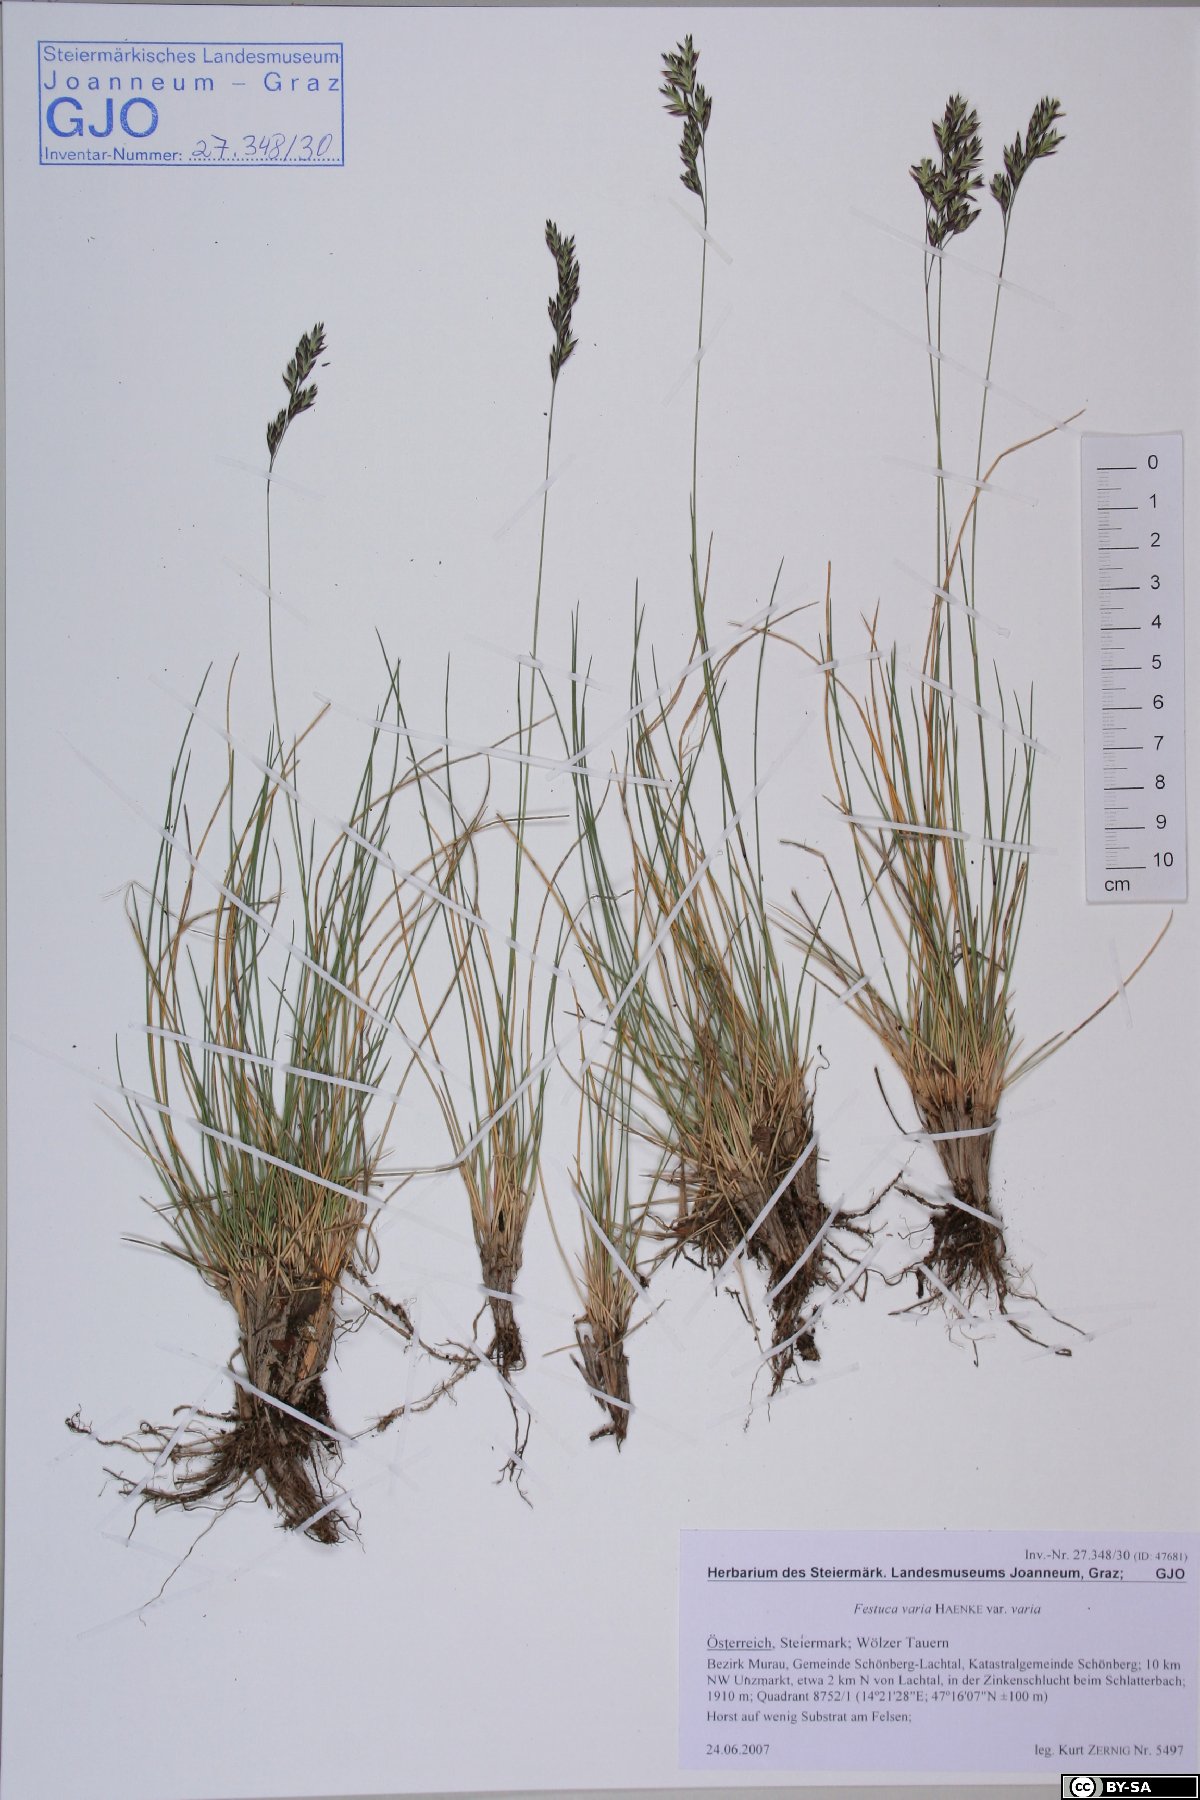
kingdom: Plantae
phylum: Tracheophyta
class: Liliopsida
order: Poales
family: Poaceae
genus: Festuca
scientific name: Festuca varia
